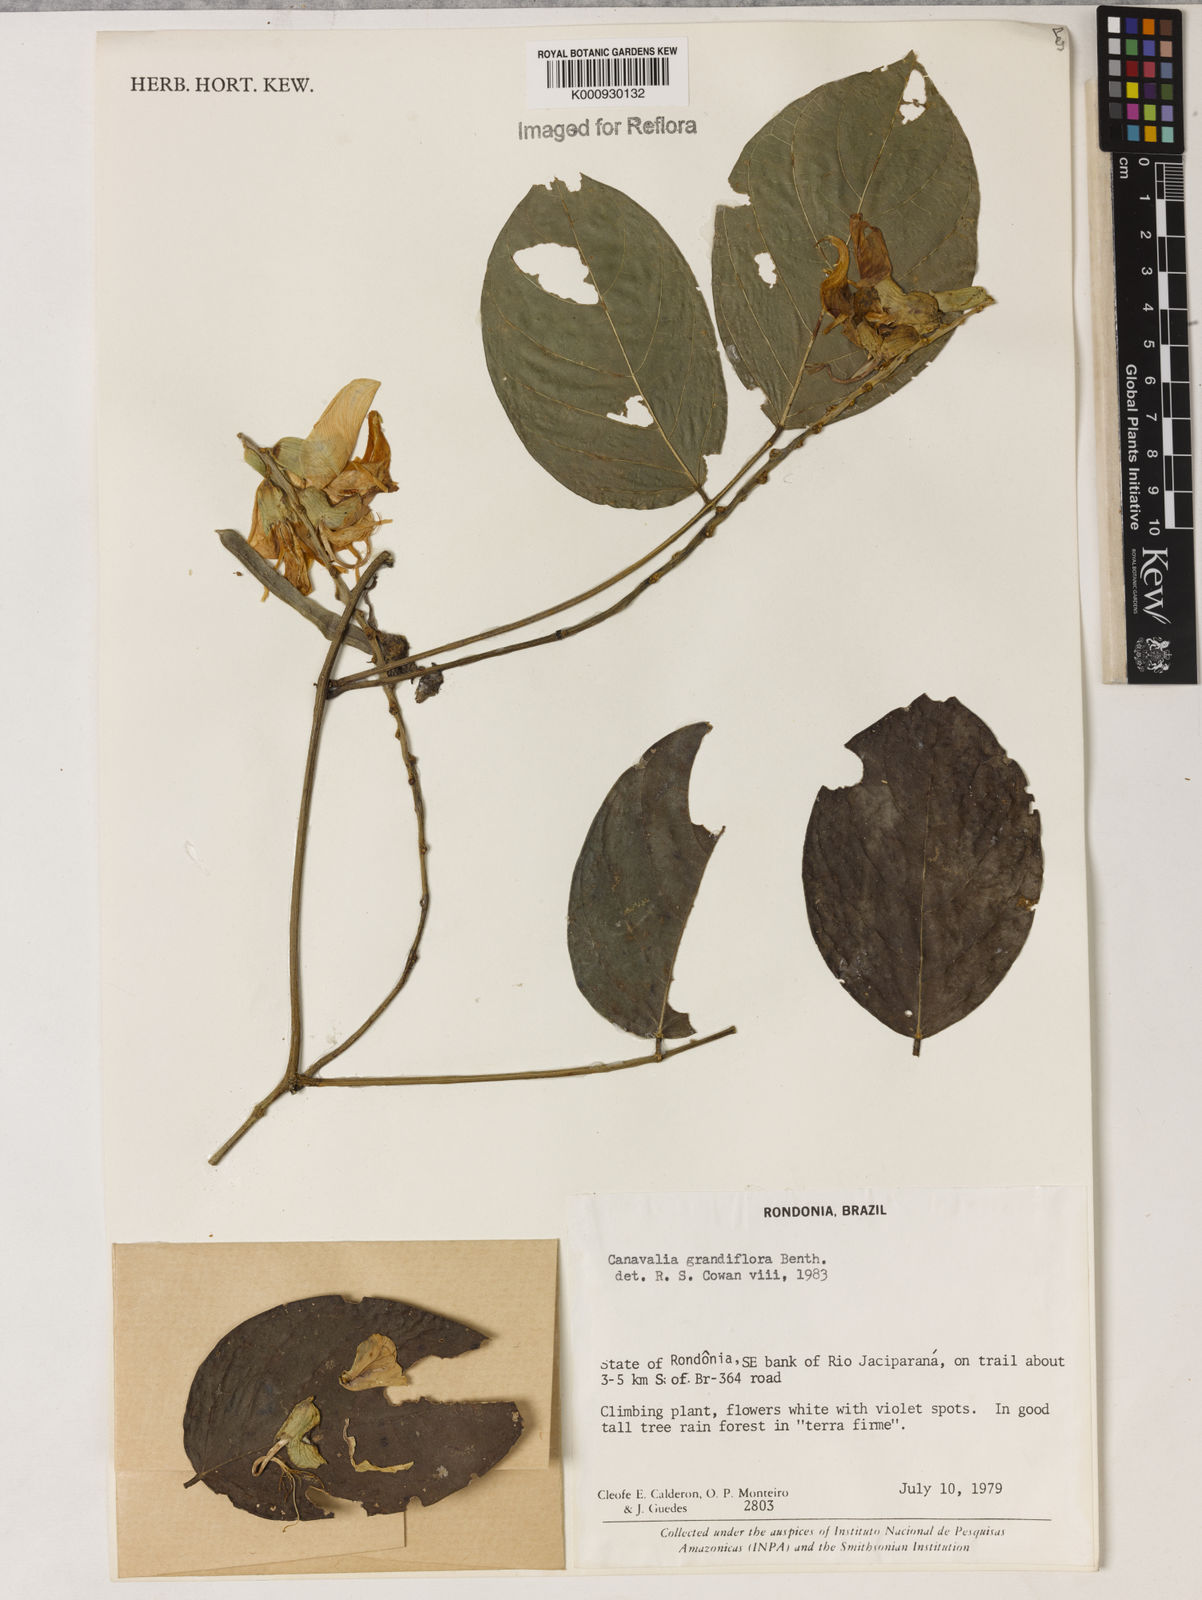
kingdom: Plantae
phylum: Tracheophyta
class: Magnoliopsida
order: Fabales
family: Fabaceae
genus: Canavalia
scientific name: Canavalia grandiflora
